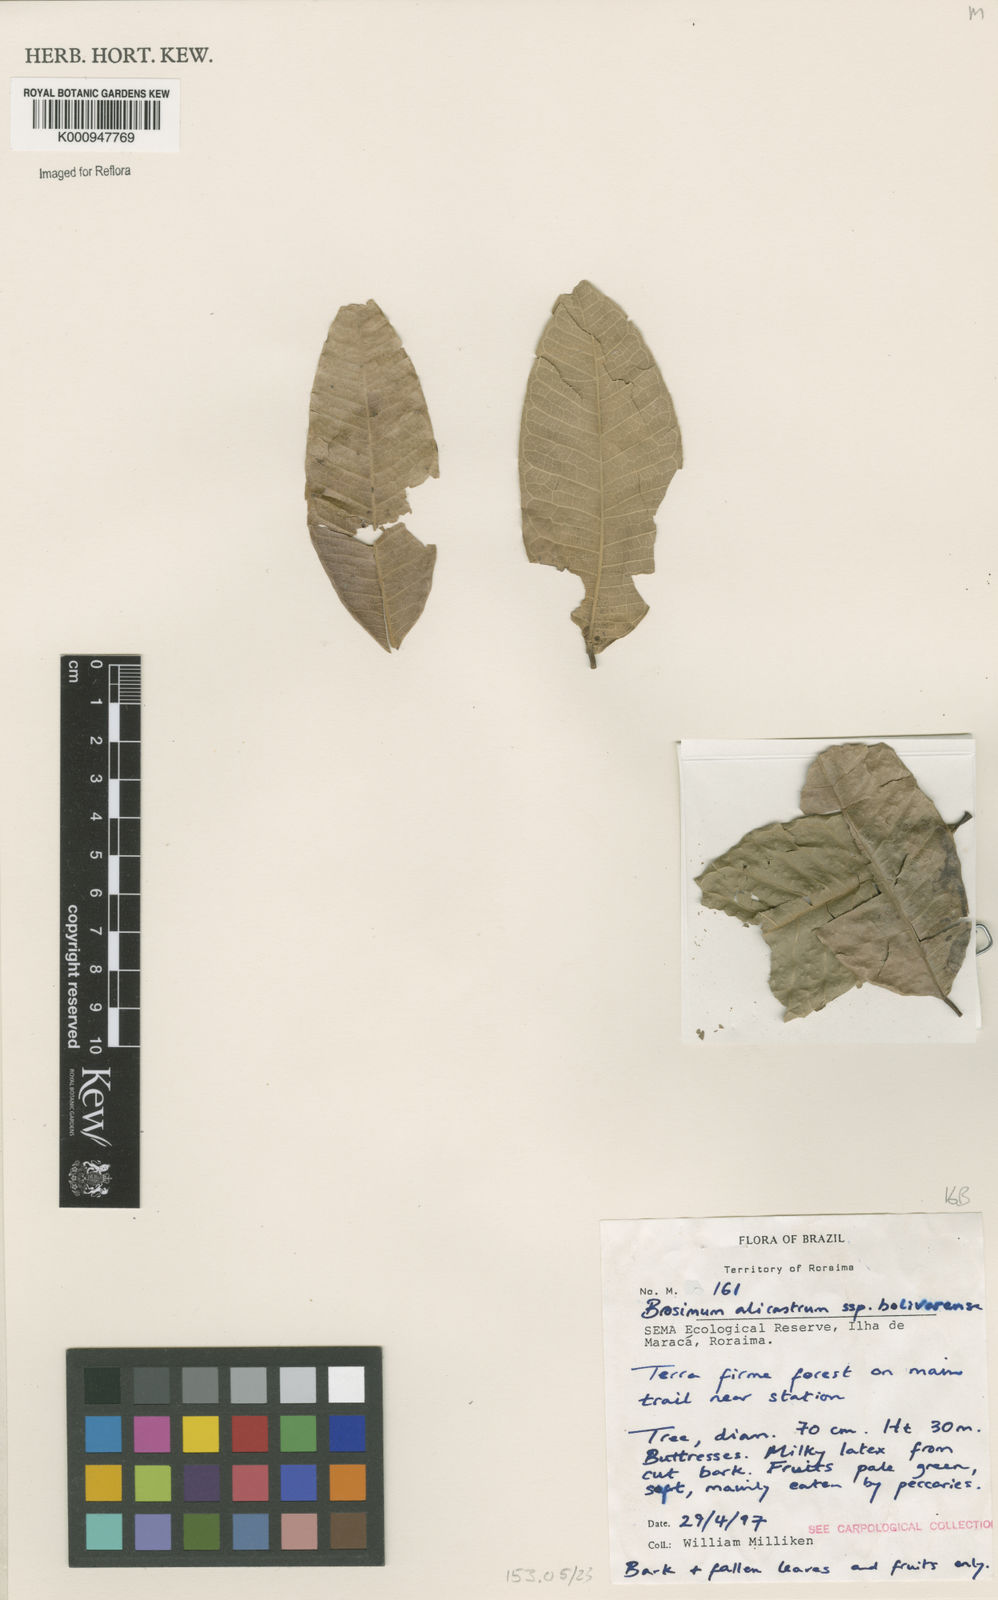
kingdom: Plantae
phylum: Tracheophyta
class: Magnoliopsida
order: Rosales
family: Moraceae
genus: Brosimum
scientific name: Brosimum alicastrum
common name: Breadnut
